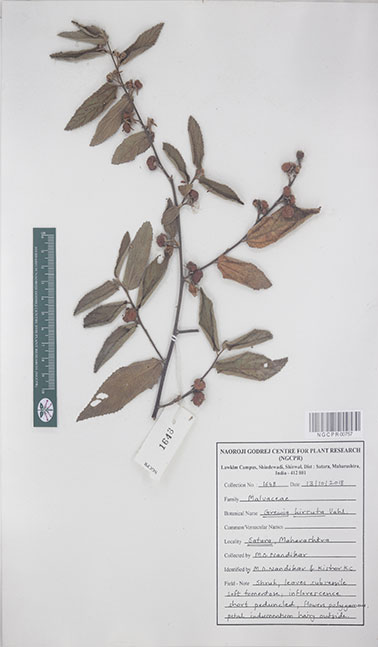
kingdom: Plantae
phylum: Tracheophyta
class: Magnoliopsida
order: Malvales
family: Malvaceae
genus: Grewia
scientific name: Grewia hirsuta
